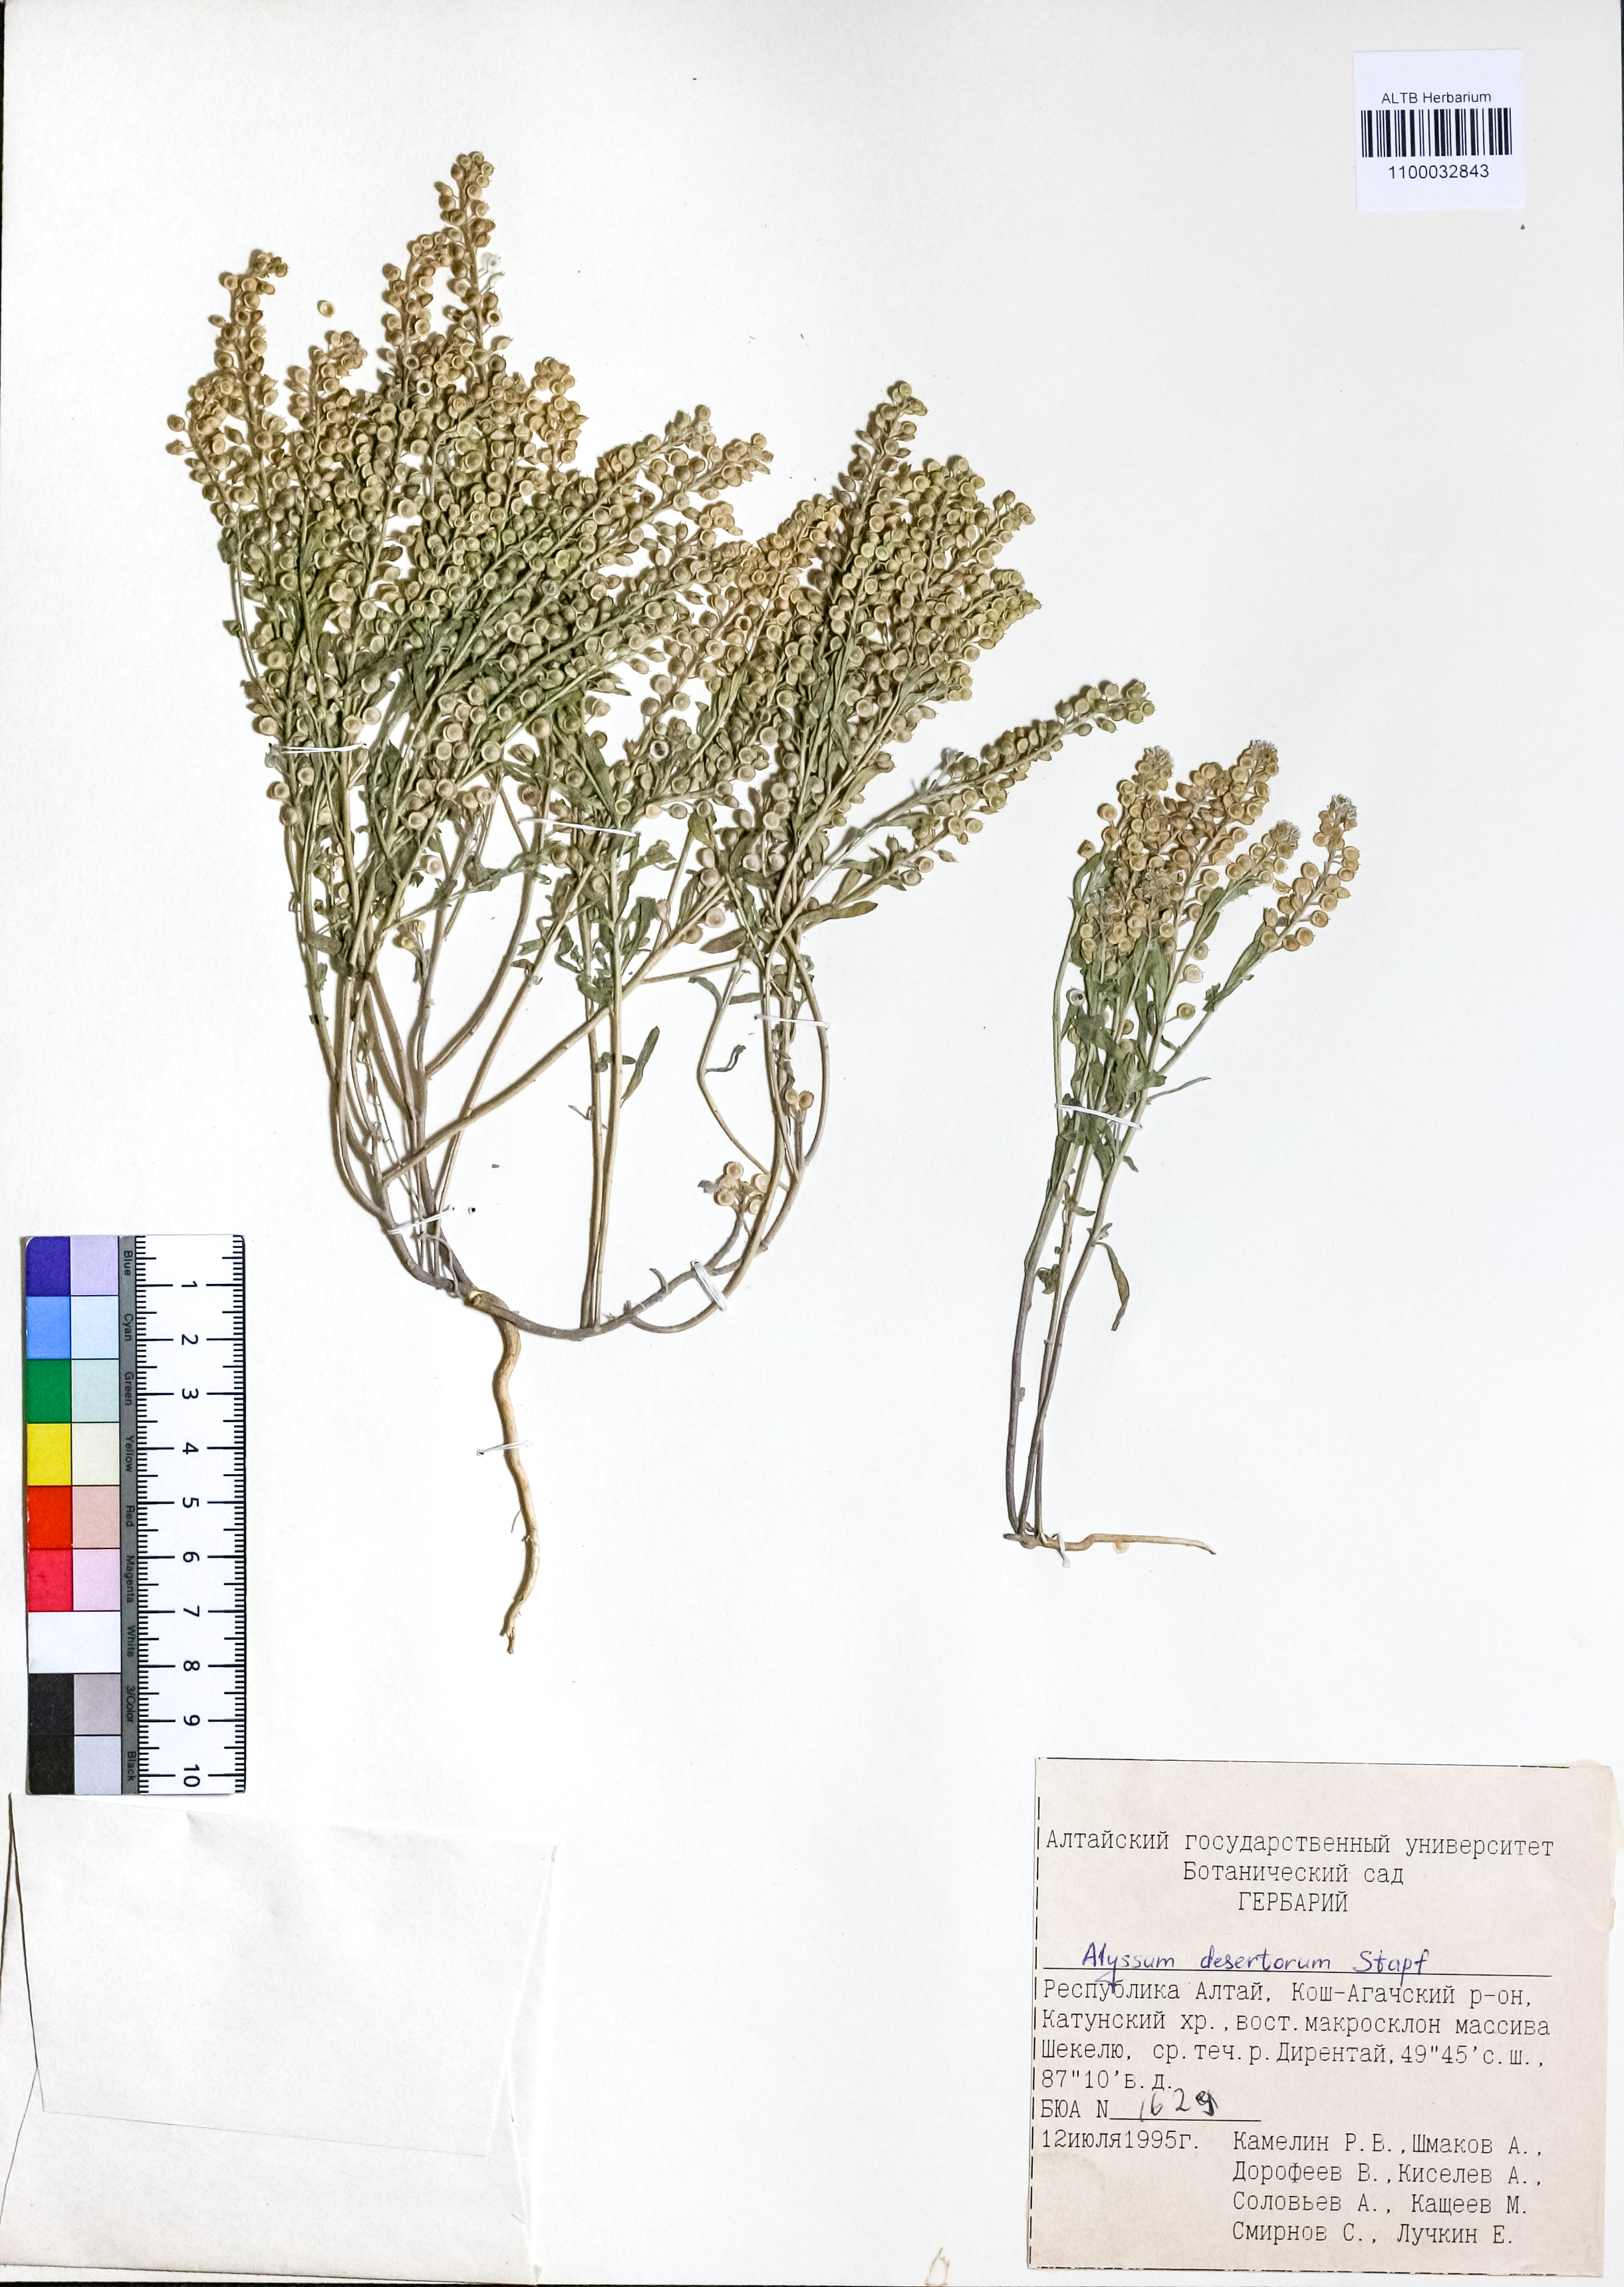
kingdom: Plantae
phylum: Tracheophyta
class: Magnoliopsida
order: Brassicales
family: Brassicaceae
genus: Alyssum
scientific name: Alyssum turkestanicum
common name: Desert alyssum
